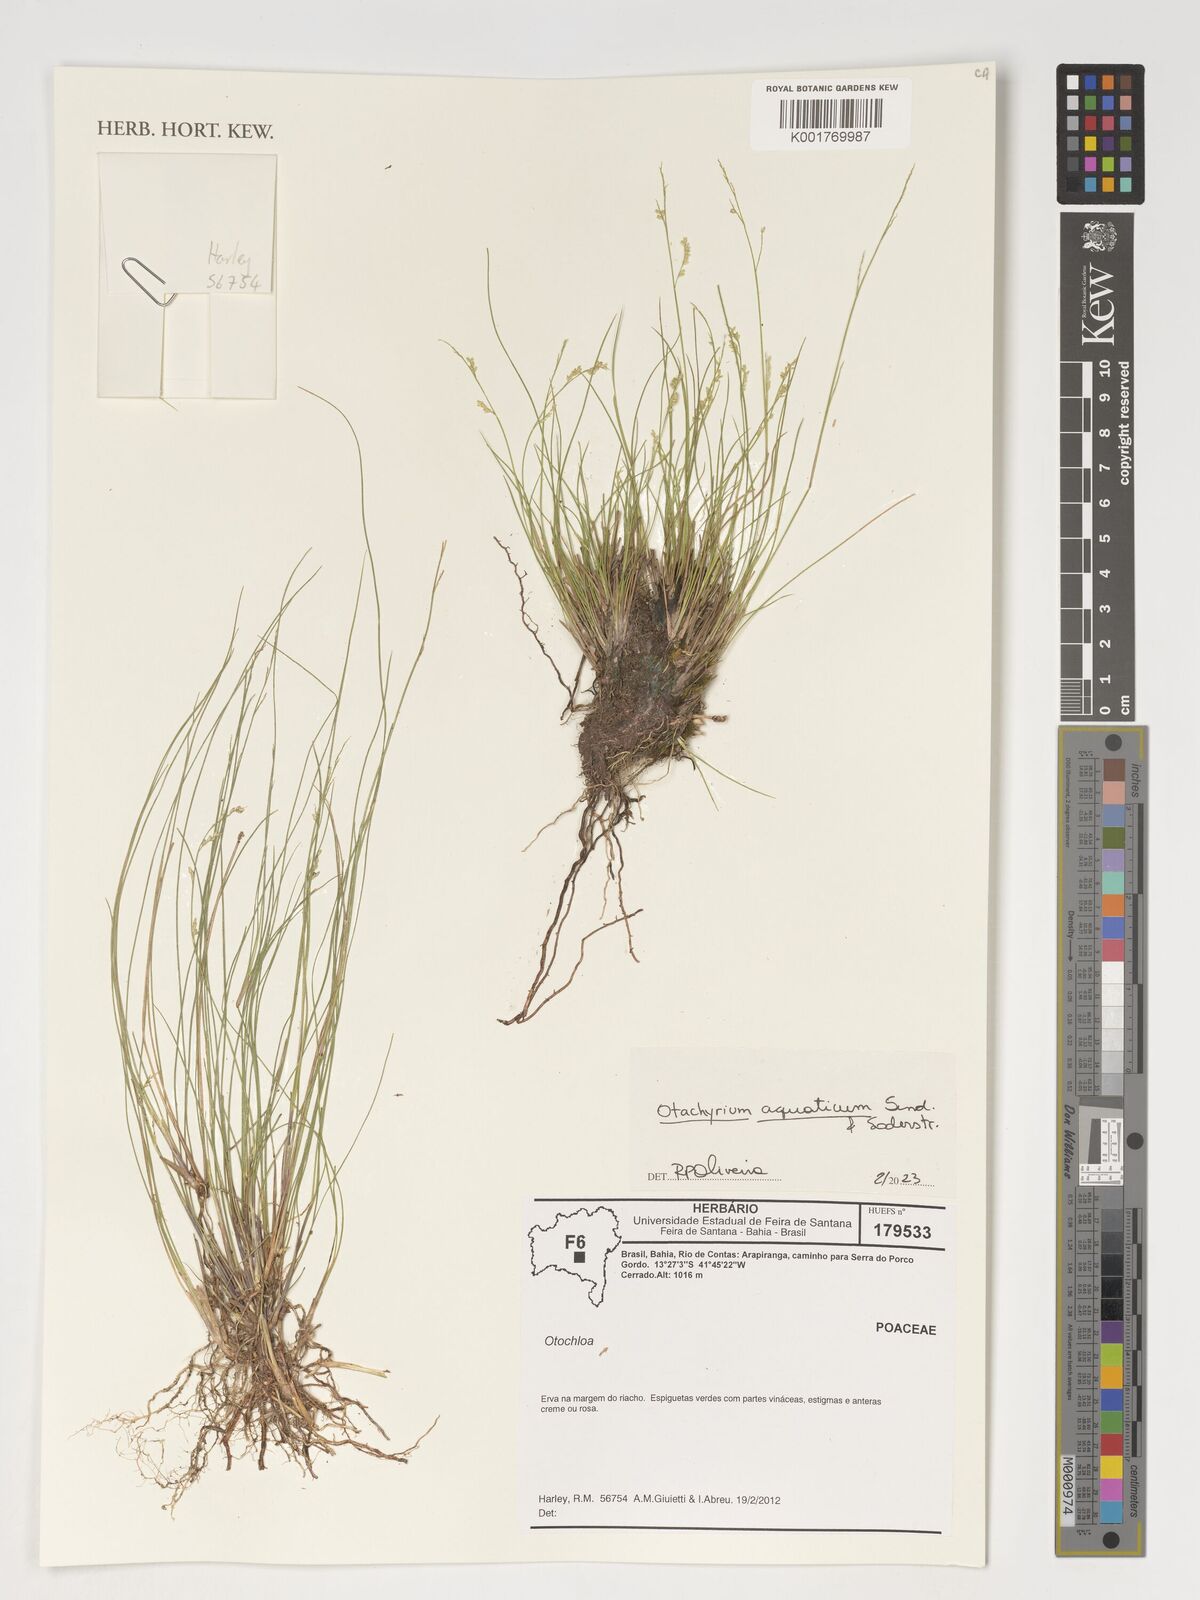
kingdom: Plantae
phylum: Tracheophyta
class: Liliopsida
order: Poales
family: Poaceae
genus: Otachyrium
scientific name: Otachyrium aquaticum
